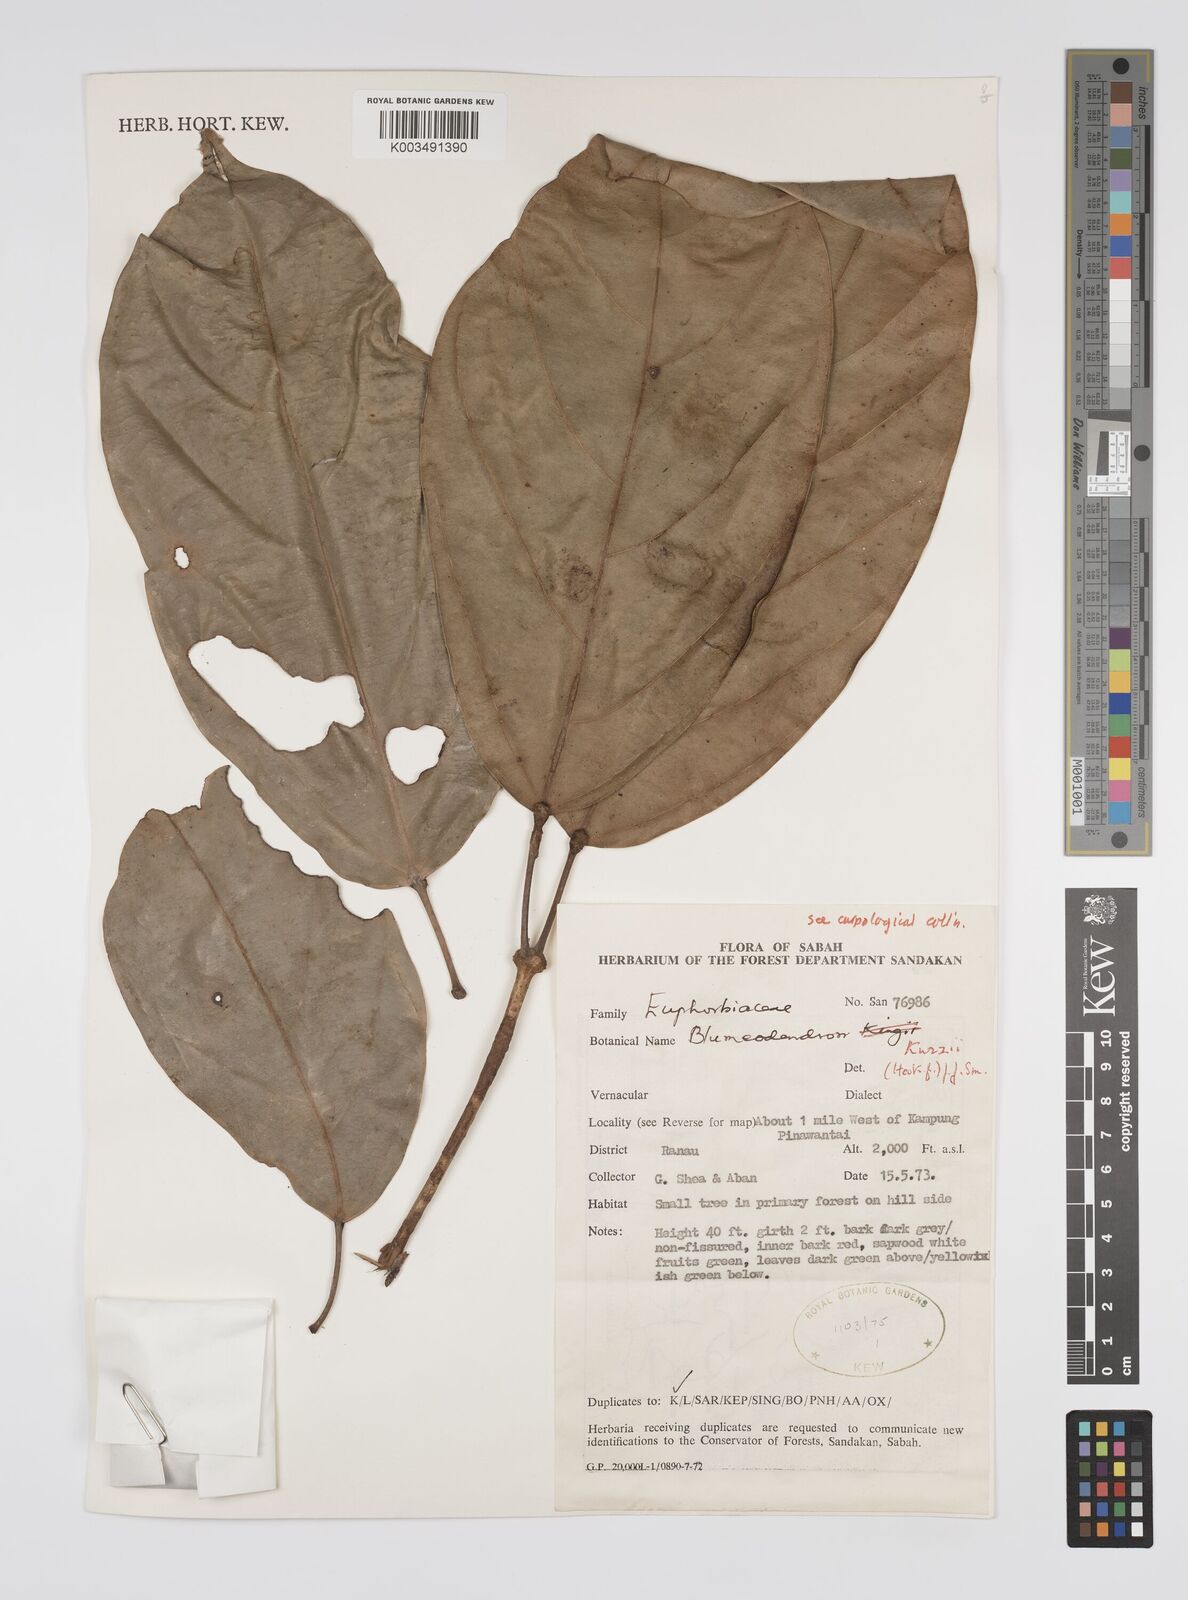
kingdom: Plantae
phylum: Tracheophyta
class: Magnoliopsida
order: Malpighiales
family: Euphorbiaceae
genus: Blumeodendron
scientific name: Blumeodendron kurzii
